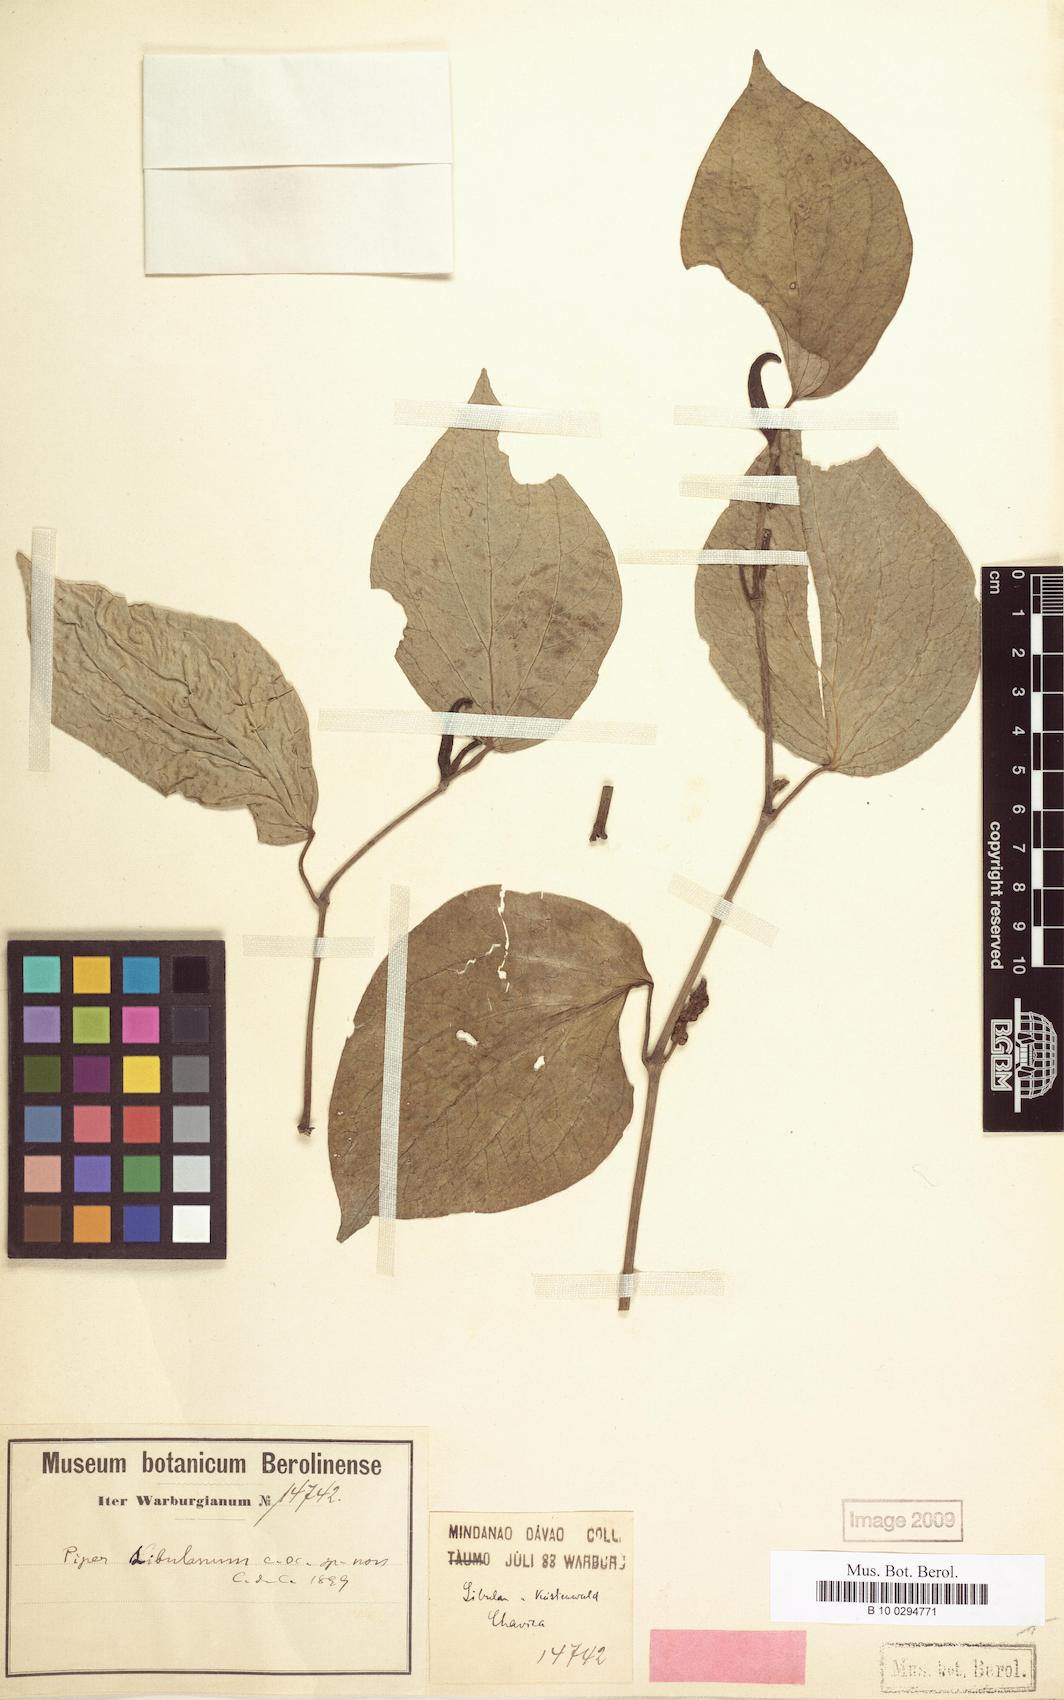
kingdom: Plantae
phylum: Tracheophyta
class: Magnoliopsida
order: Piperales
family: Piperaceae
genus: Piper
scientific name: Piper sibulanum
